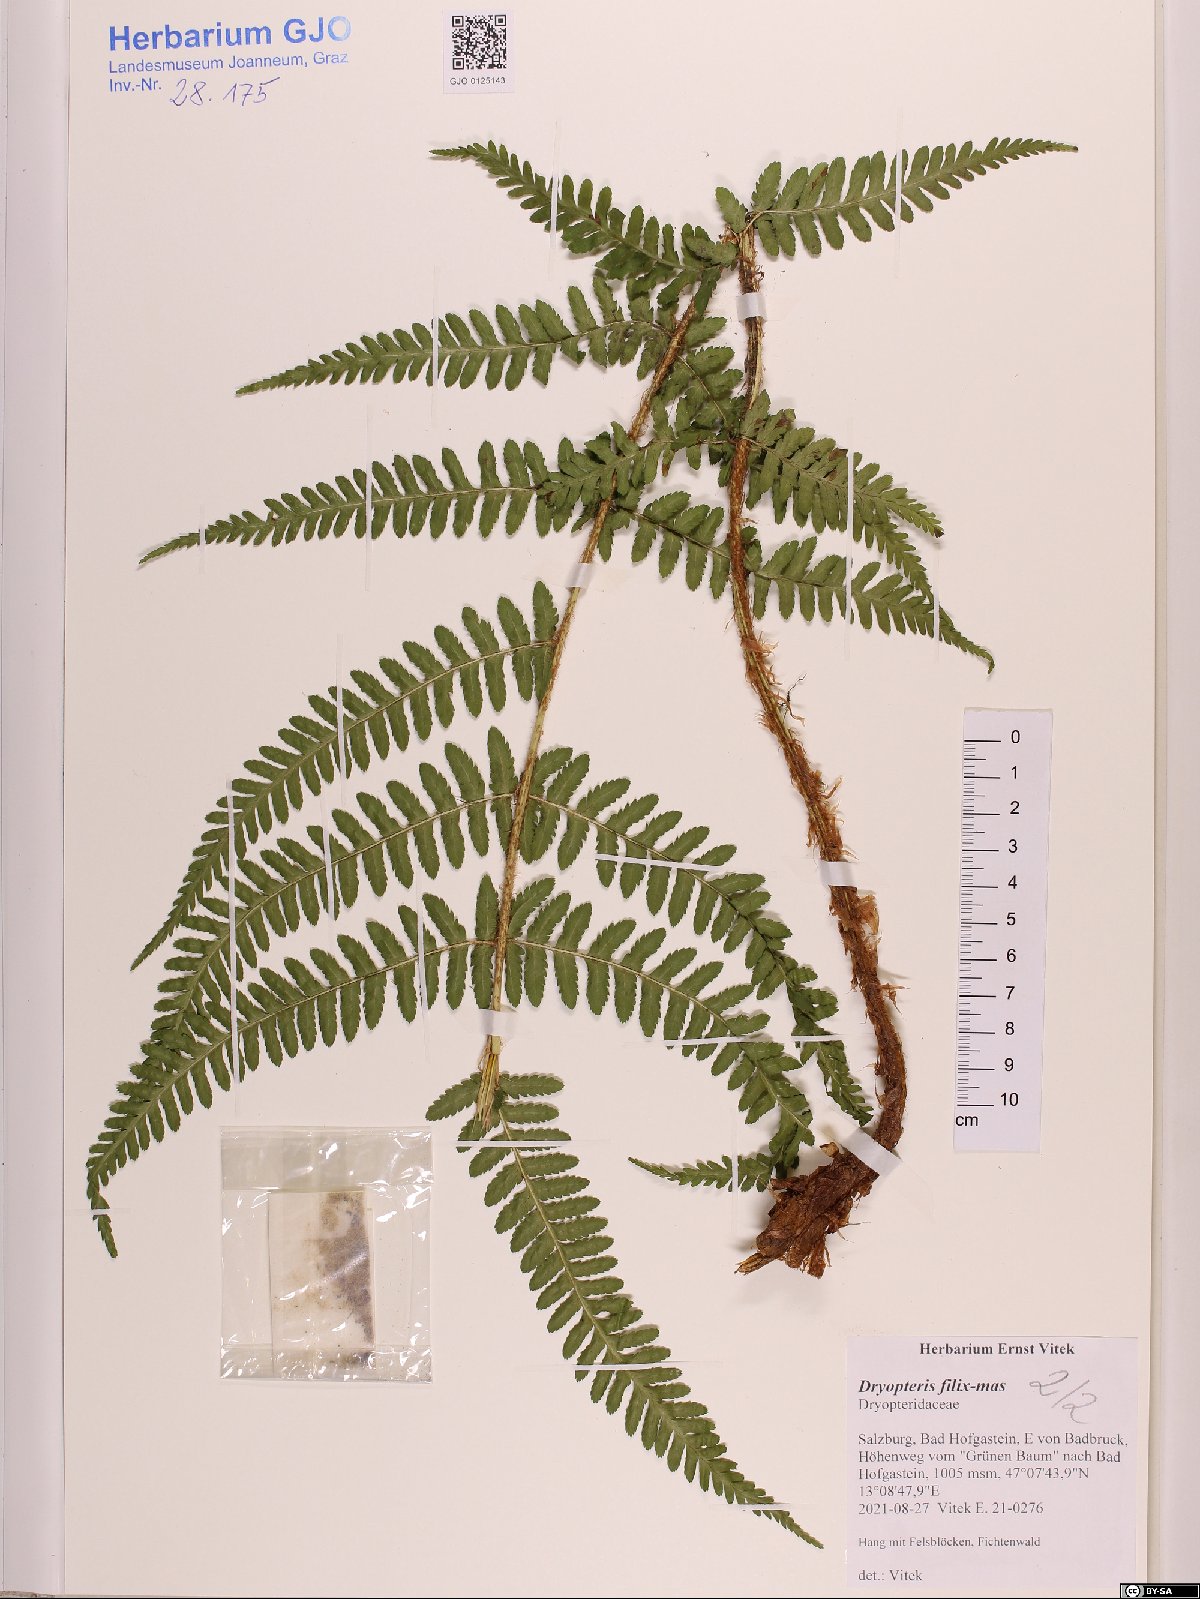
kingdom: Plantae
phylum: Tracheophyta
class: Polypodiopsida
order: Polypodiales
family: Dryopteridaceae
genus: Dryopteris
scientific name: Dryopteris filix-mas
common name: Male fern
